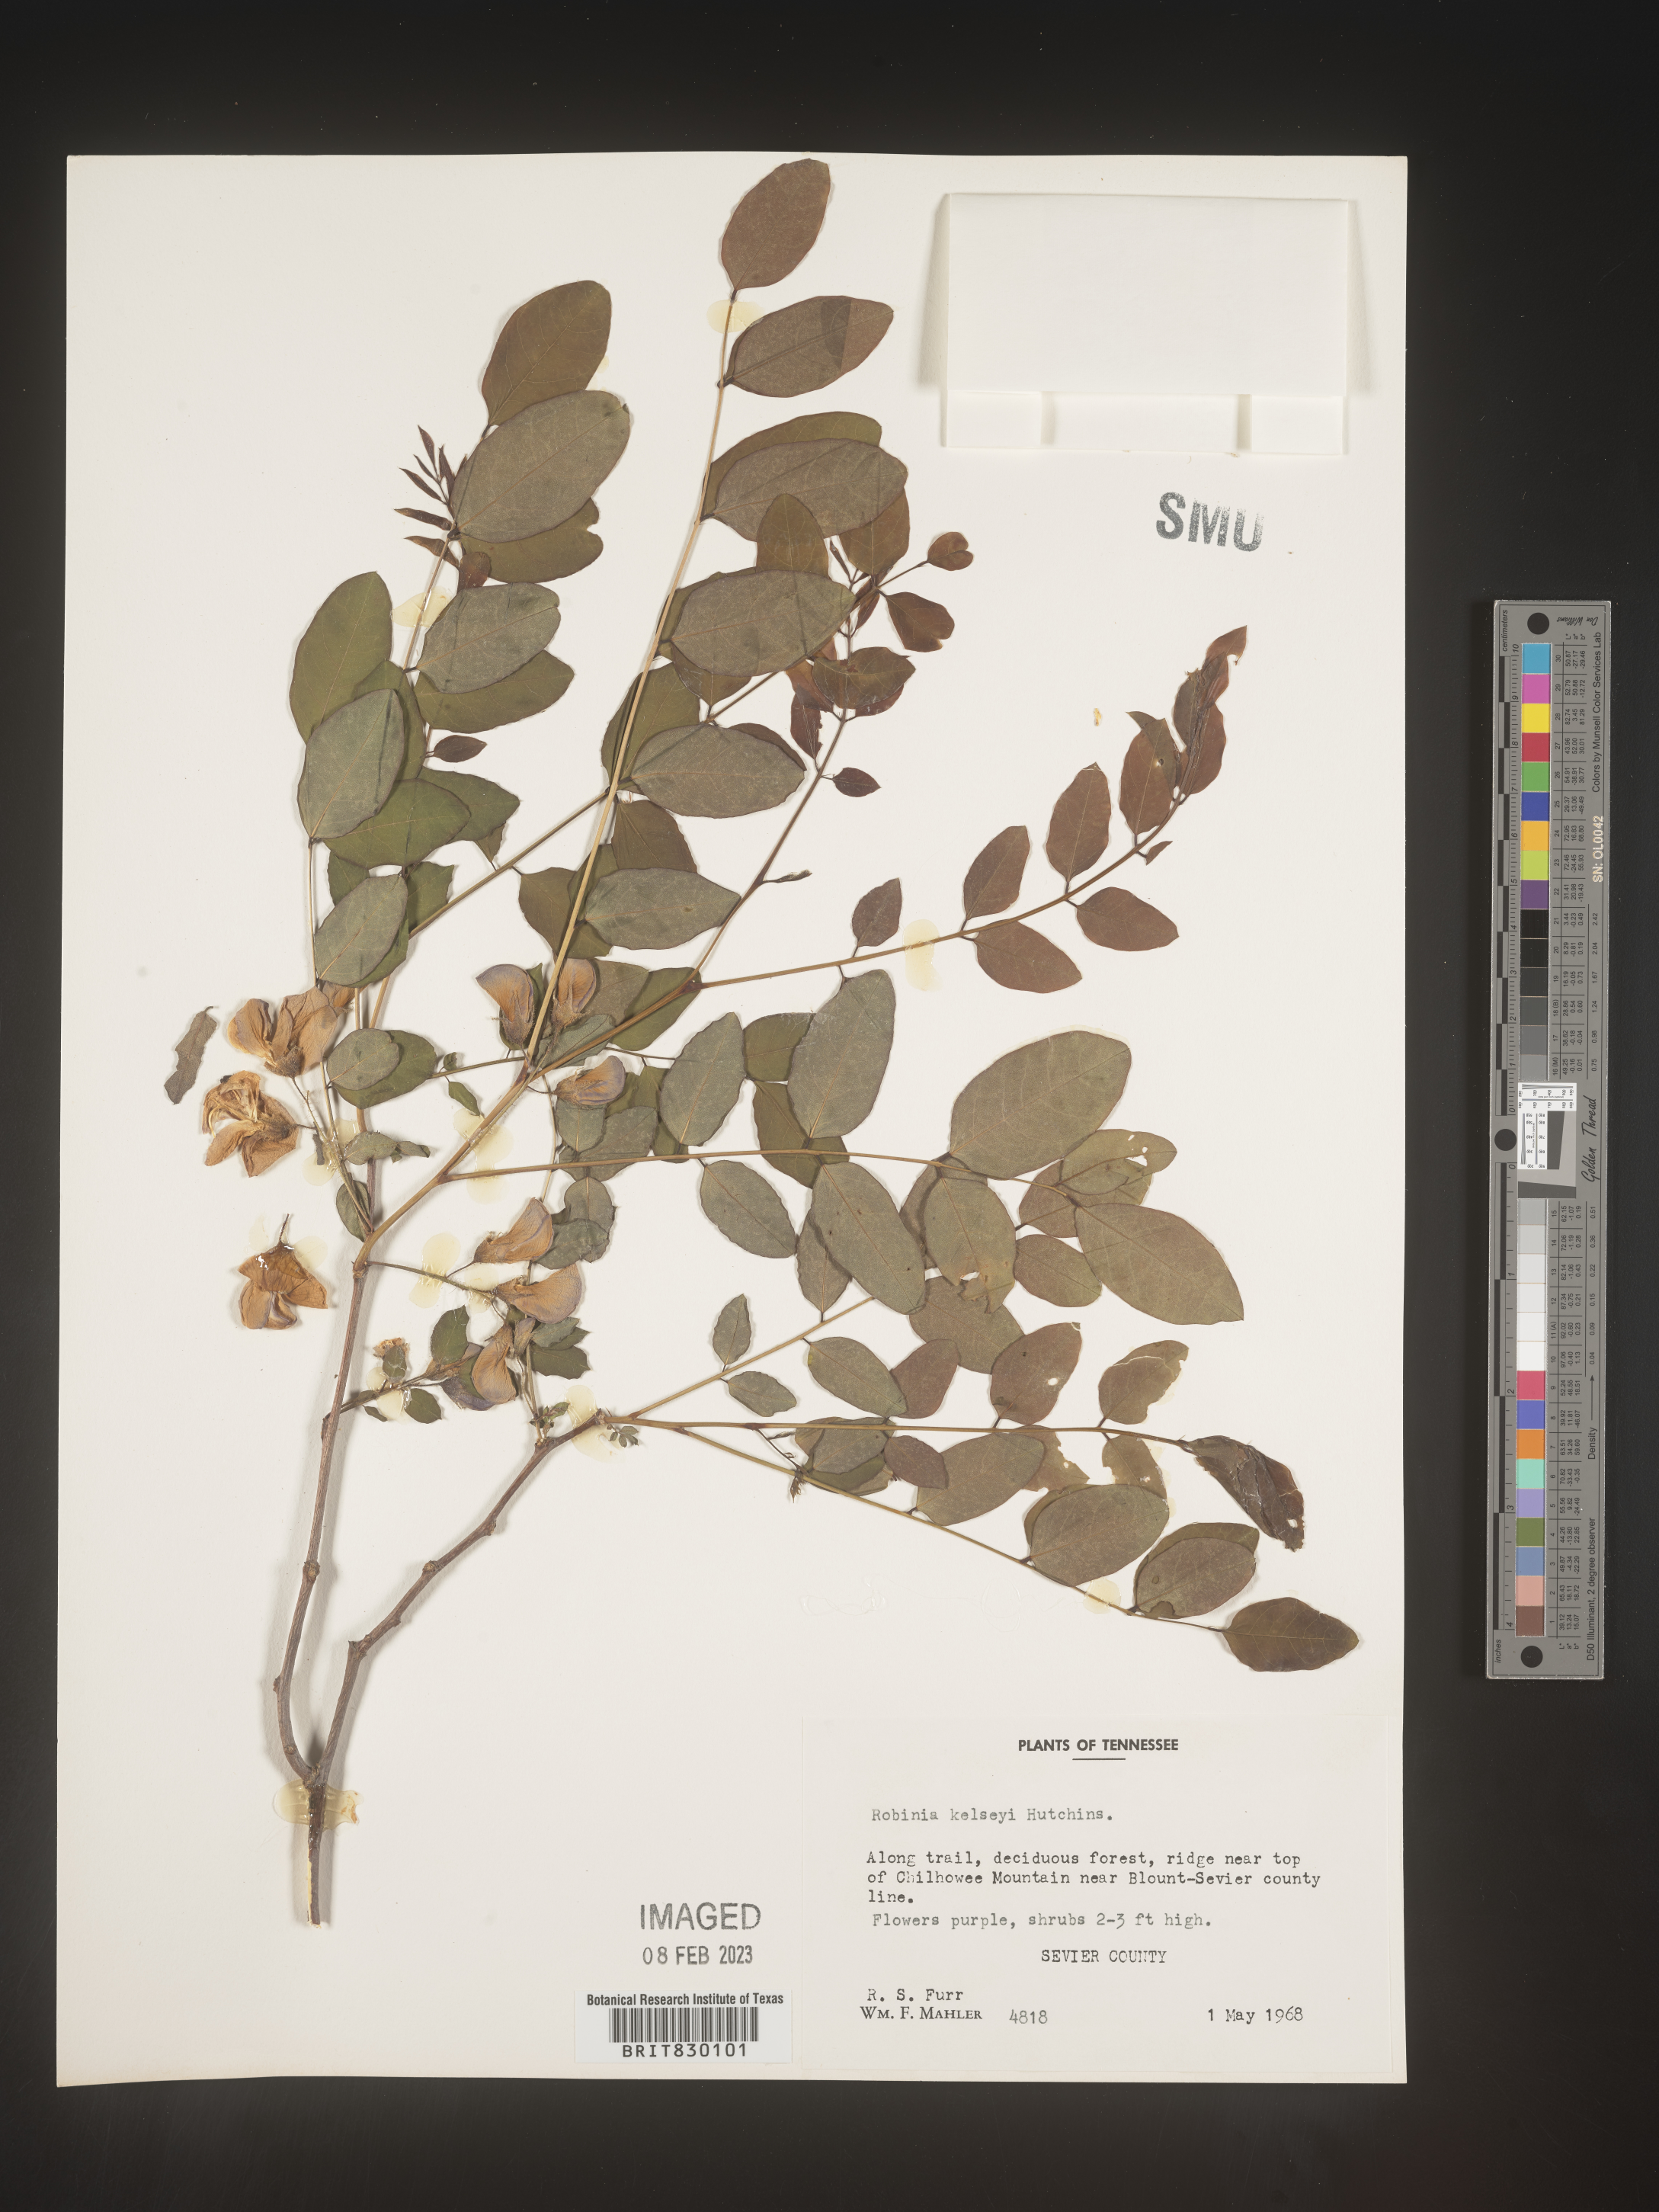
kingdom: Plantae
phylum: Tracheophyta
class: Magnoliopsida
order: Fabales
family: Fabaceae
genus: Robinia
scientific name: Robinia
